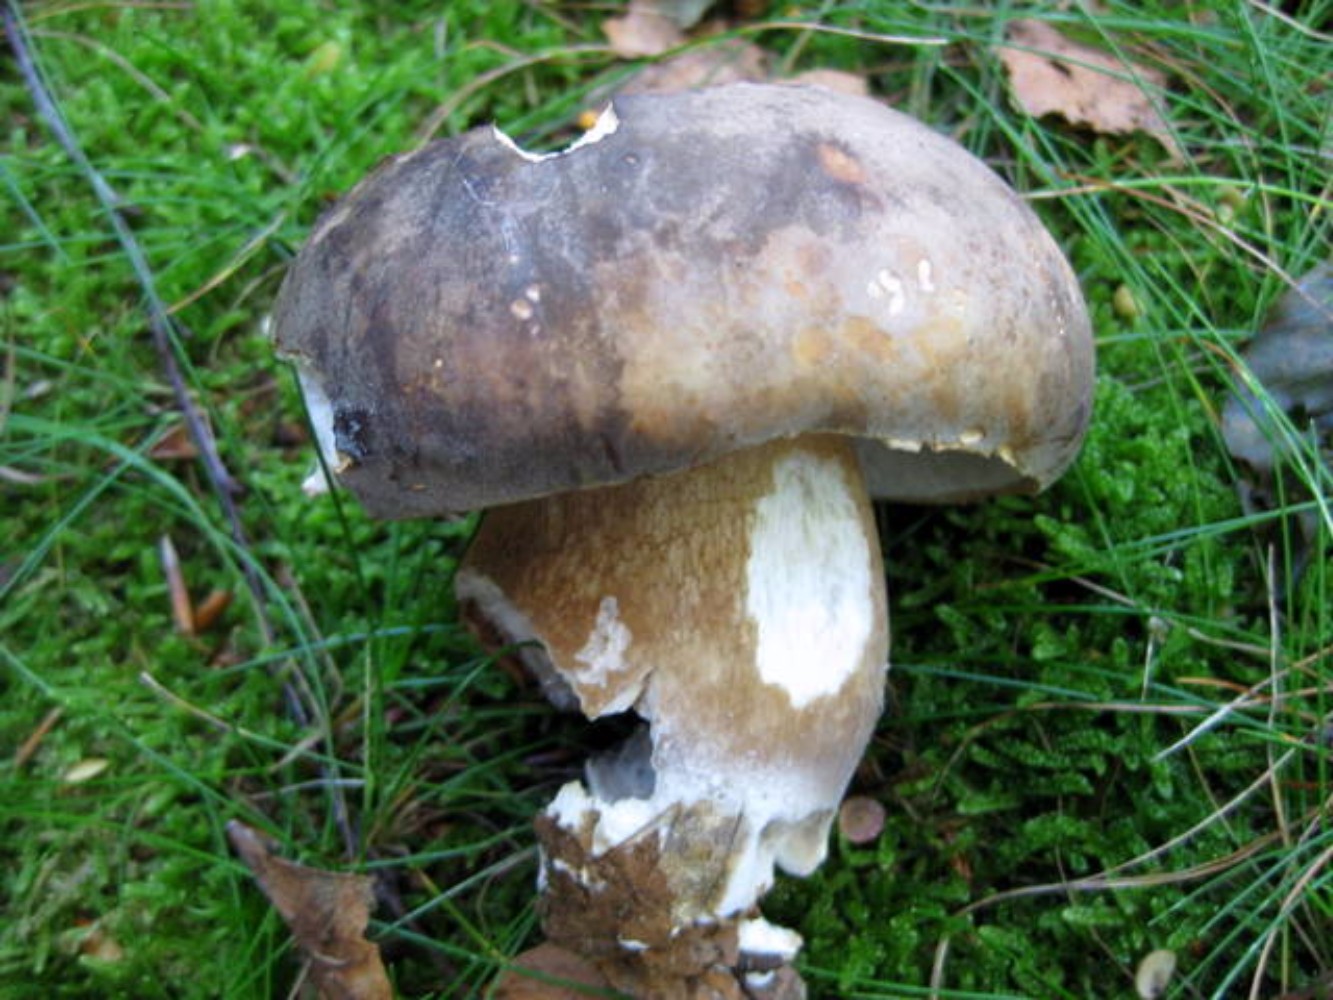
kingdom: Fungi
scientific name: Fungi
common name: bronze-rørhat
